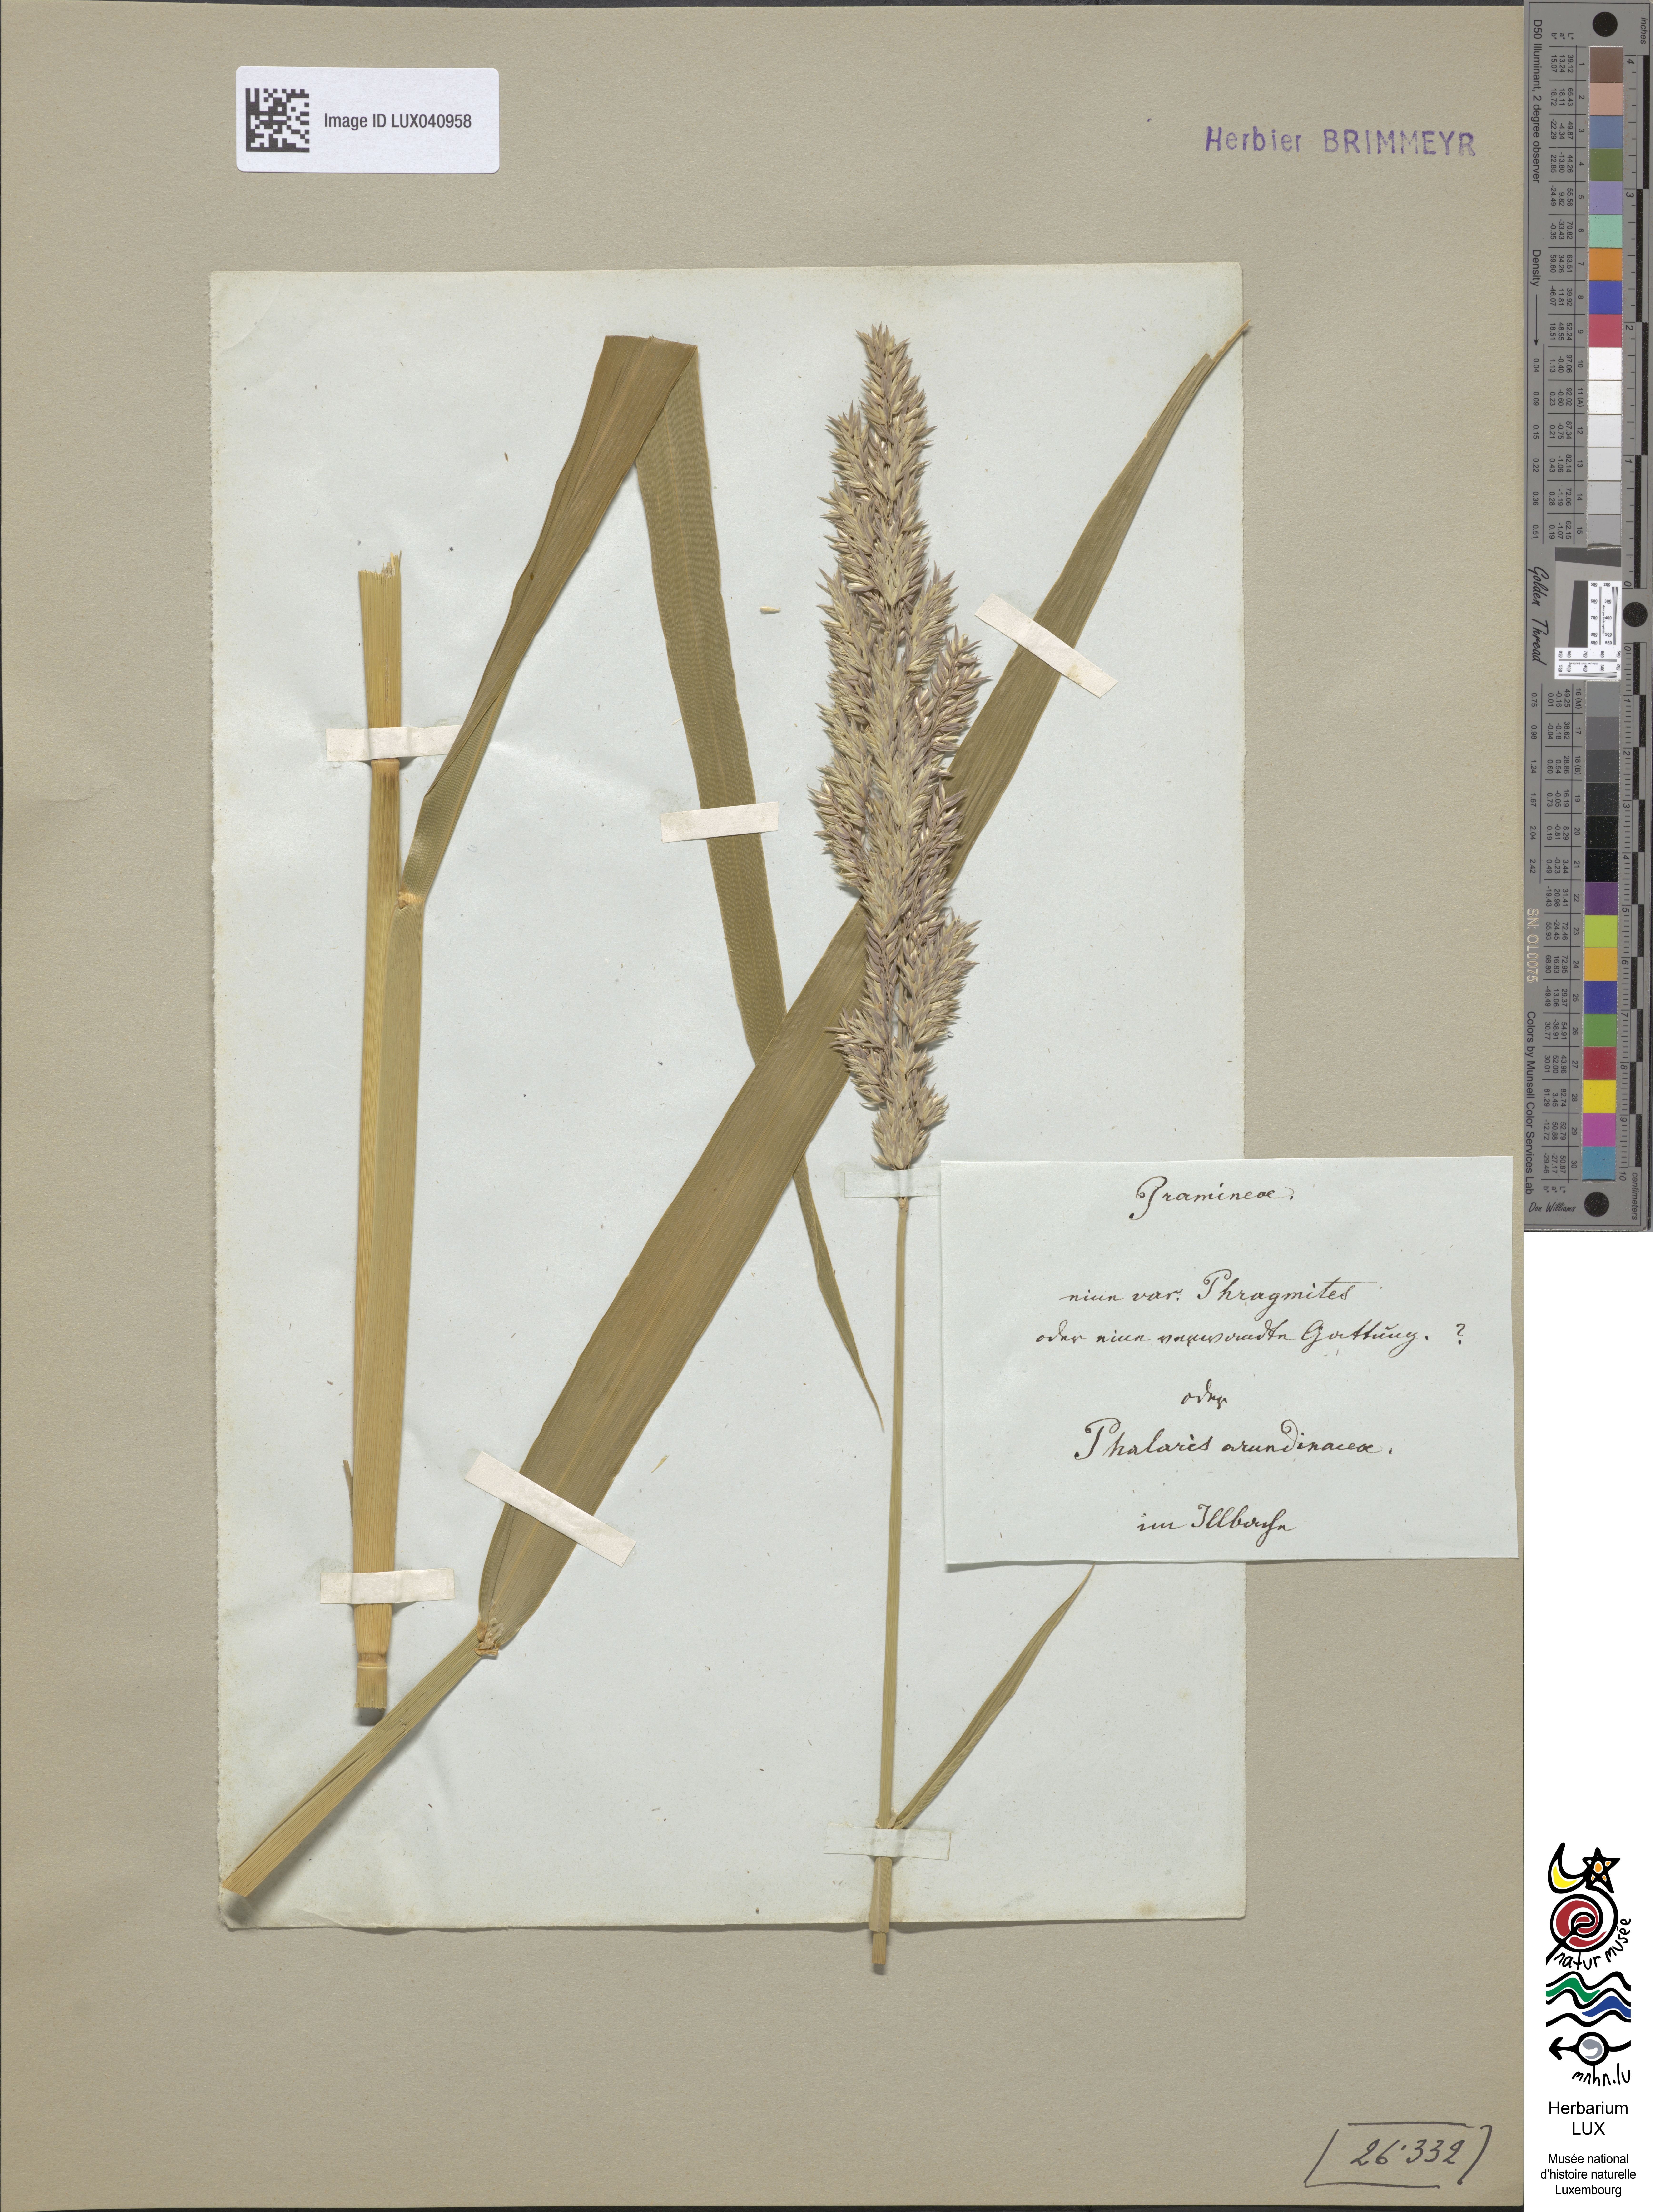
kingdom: Plantae
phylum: Tracheophyta
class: Liliopsida
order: Poales
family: Poaceae
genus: Phalaris
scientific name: Phalaris arundinacea
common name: Reed canary-grass
